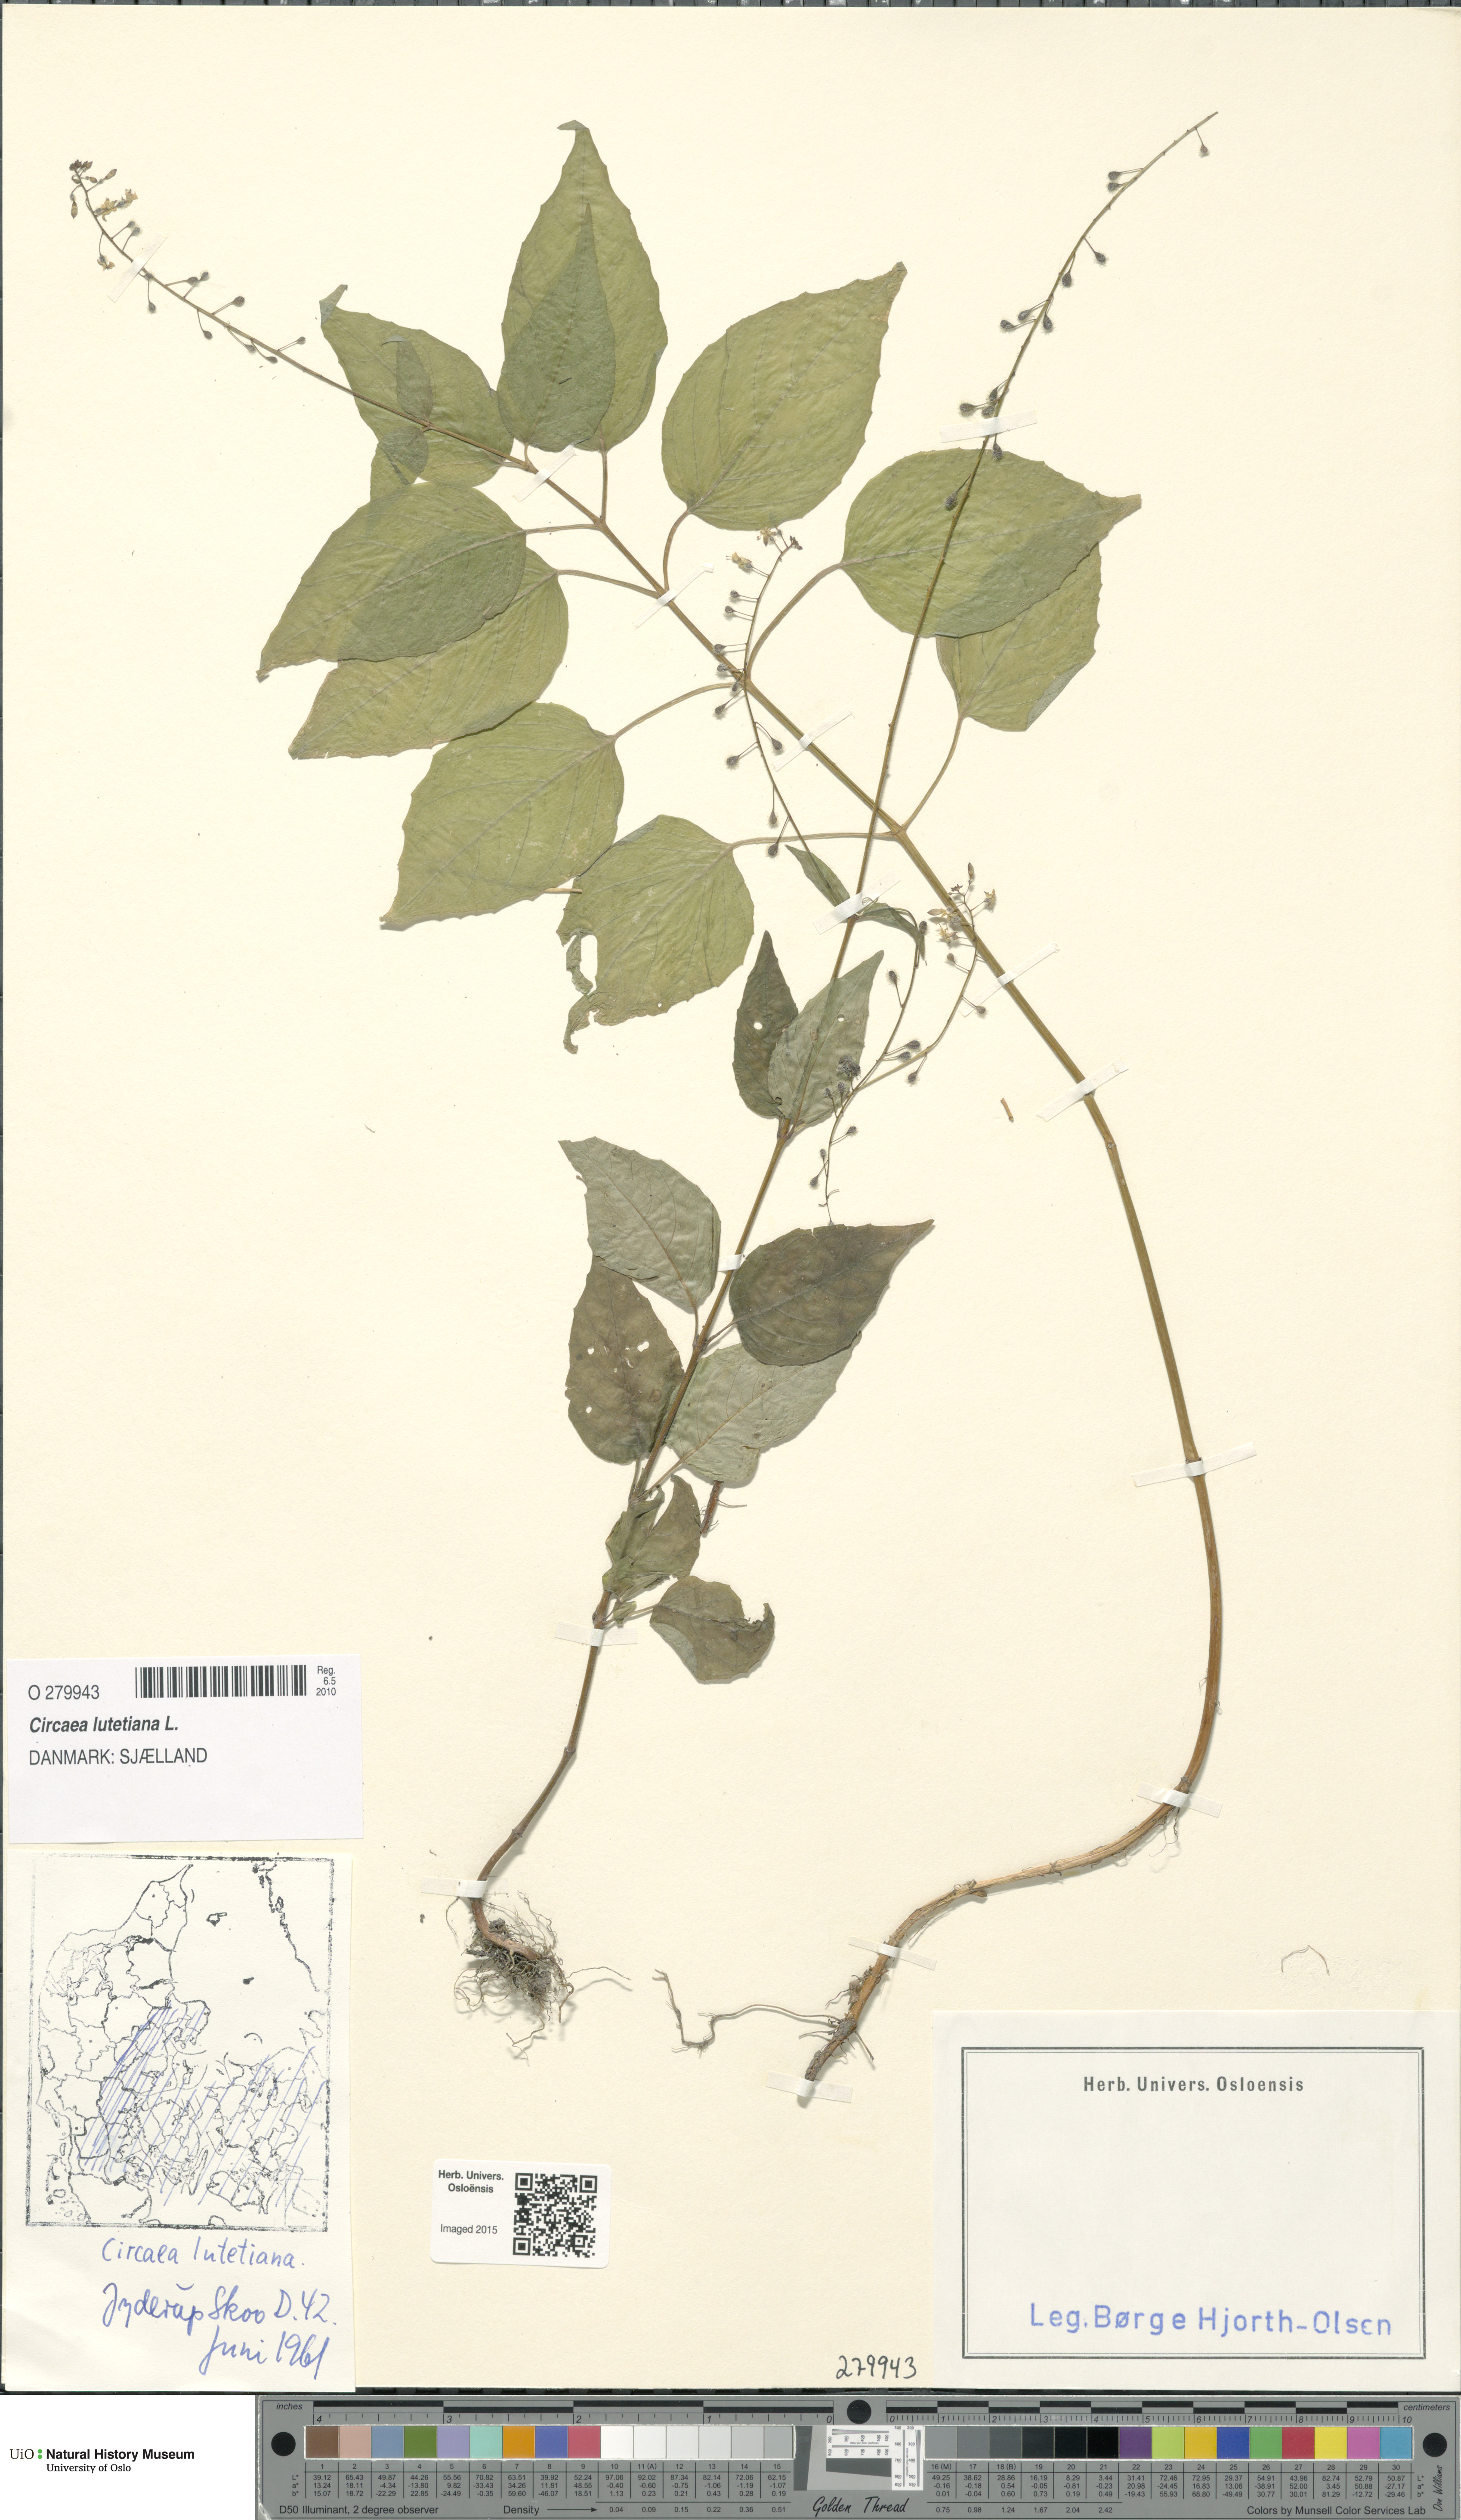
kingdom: Plantae
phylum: Tracheophyta
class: Magnoliopsida
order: Myrtales
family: Onagraceae
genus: Circaea
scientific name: Circaea lutetiana
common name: Enchanter's-nightshade
